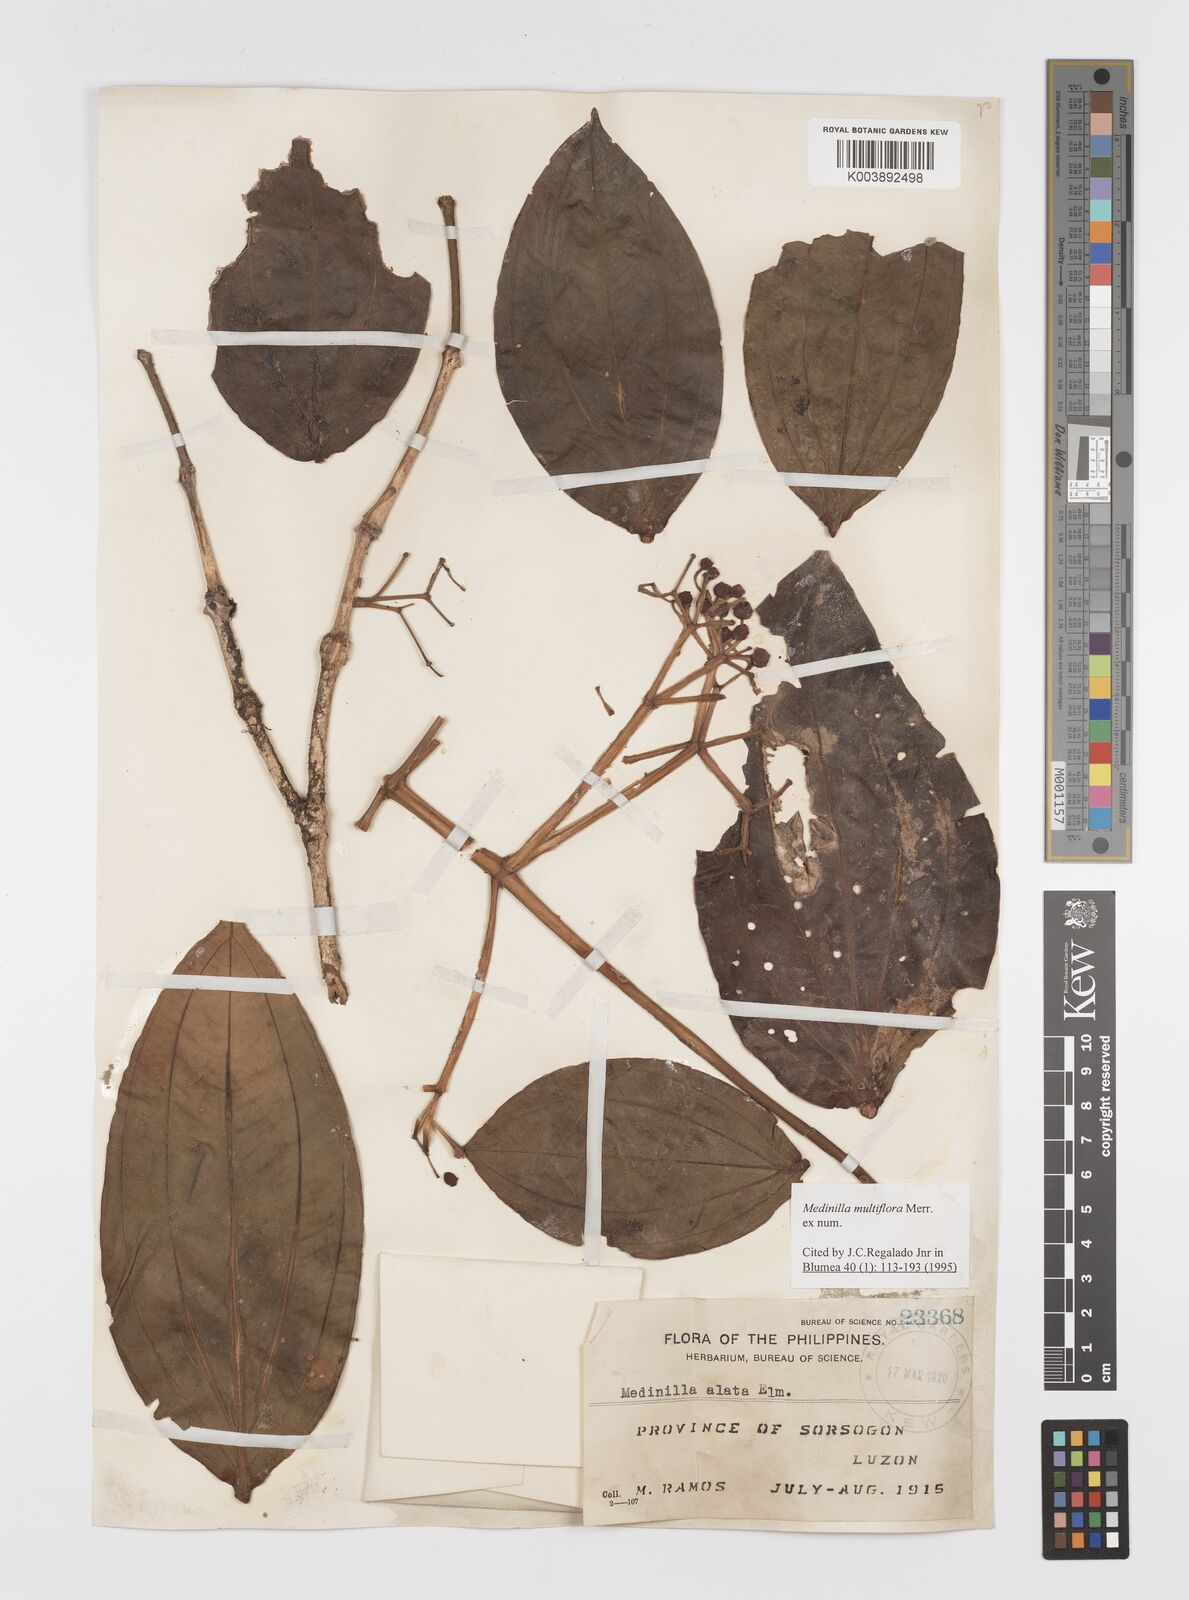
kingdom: Plantae
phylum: Tracheophyta
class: Magnoliopsida
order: Myrtales
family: Melastomataceae
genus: Medinilla
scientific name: Medinilla multiflora
